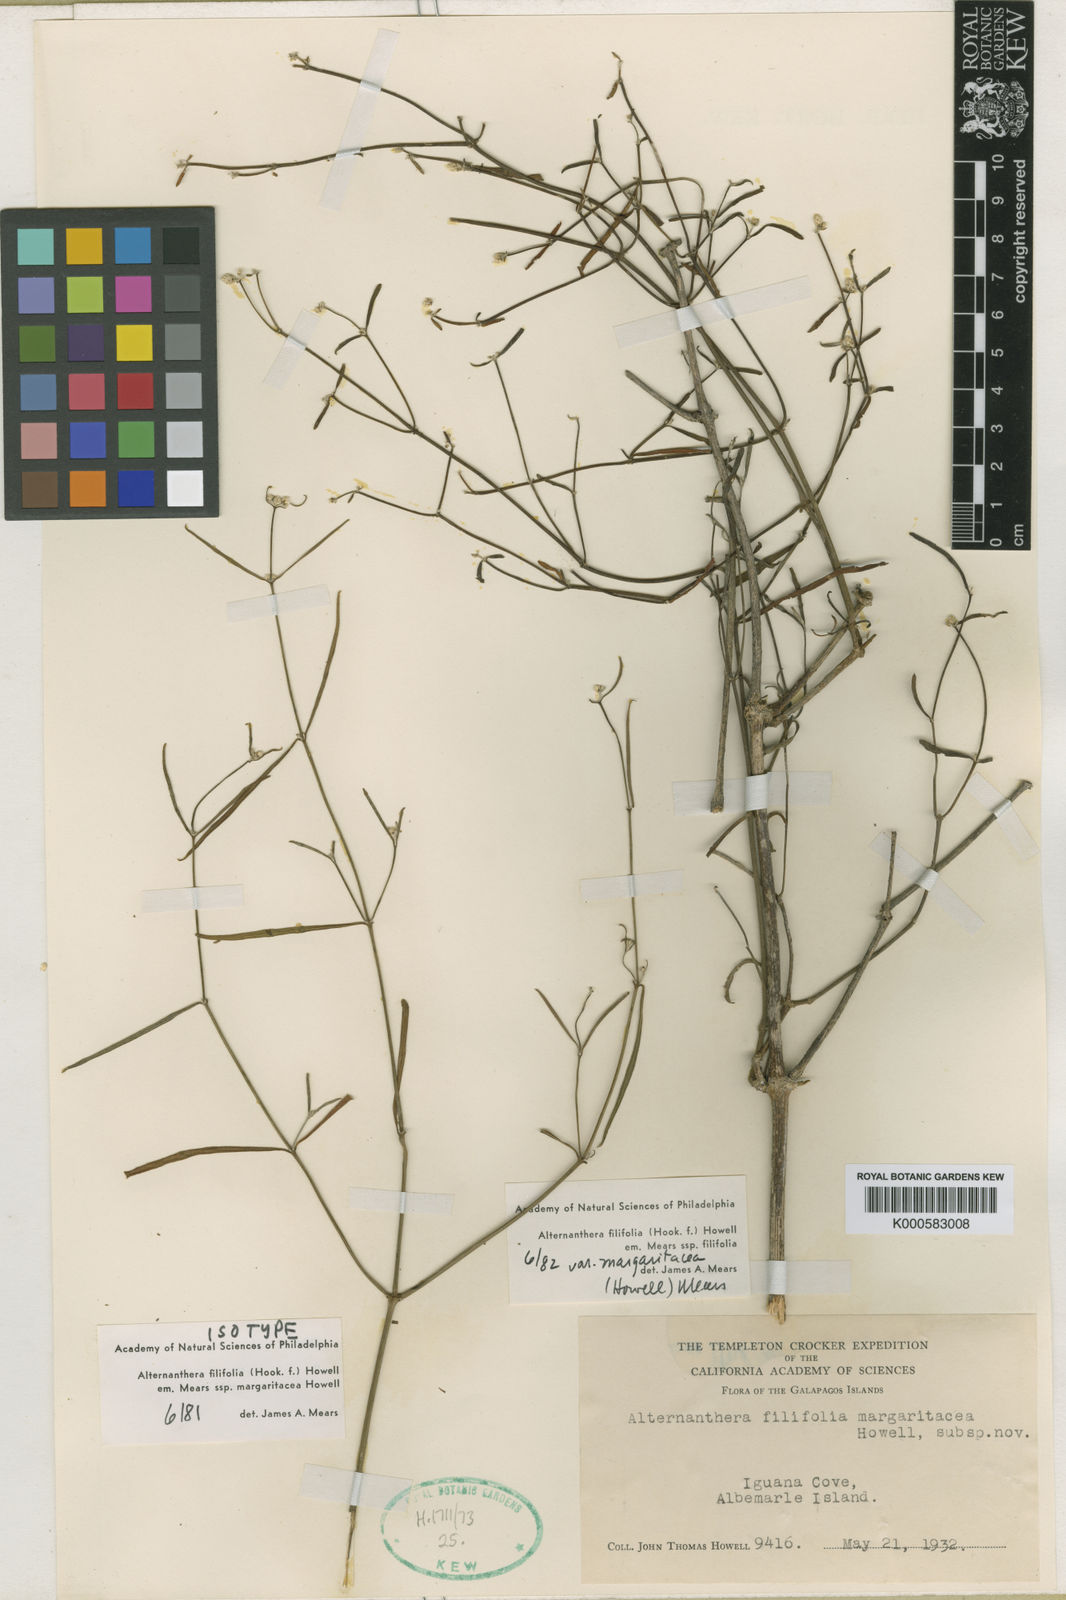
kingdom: Plantae
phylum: Tracheophyta
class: Magnoliopsida
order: Caryophyllales
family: Amaranthaceae
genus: Alternanthera
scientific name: Alternanthera filifolia
